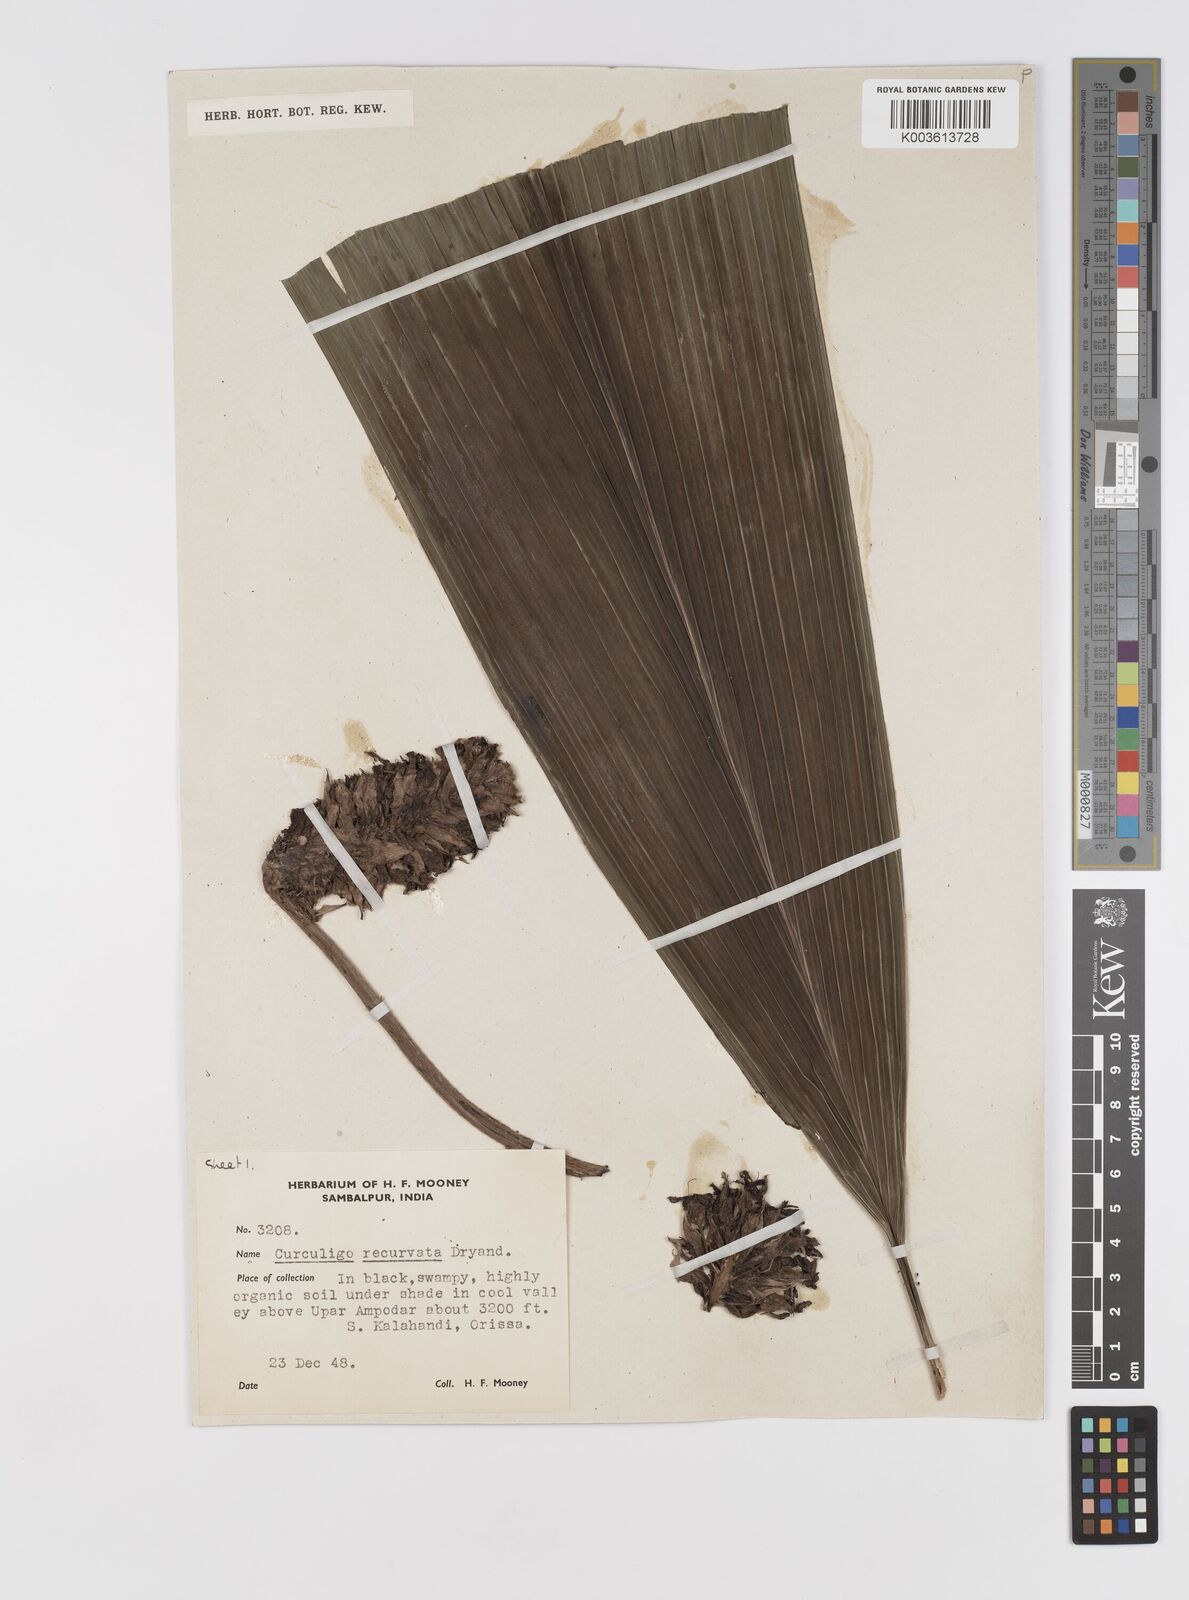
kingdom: Plantae
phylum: Tracheophyta
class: Liliopsida
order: Asparagales
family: Hypoxidaceae
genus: Curculigo
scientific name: Curculigo capitulata
